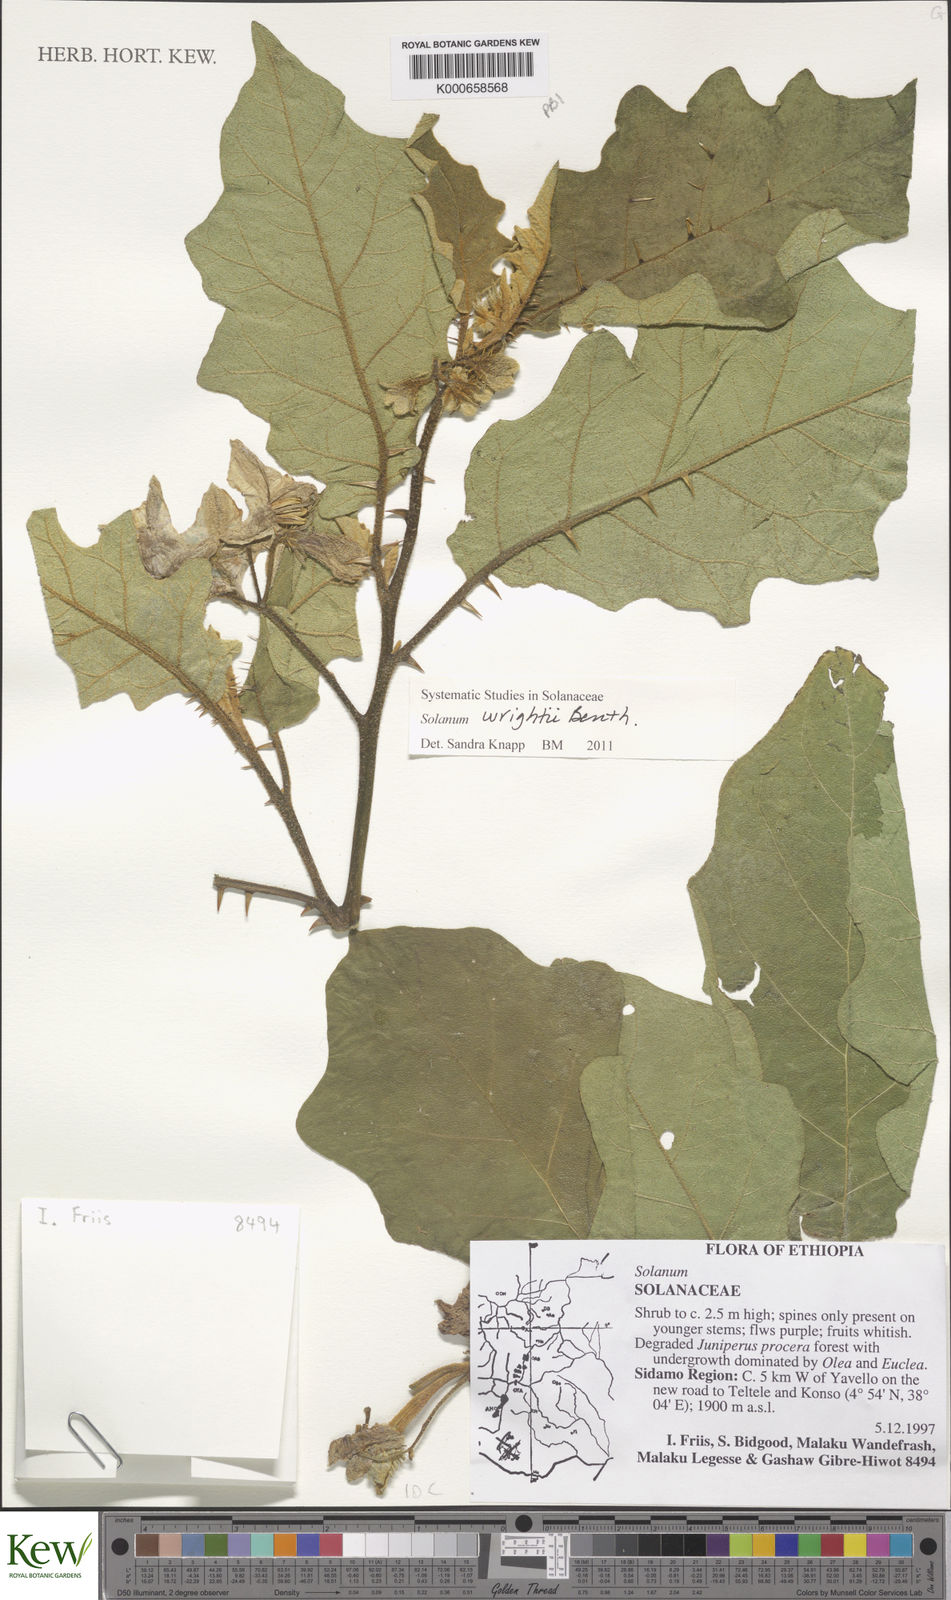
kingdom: Plantae
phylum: Tracheophyta
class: Magnoliopsida
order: Solanales
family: Solanaceae
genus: Solanum
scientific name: Solanum wrightii
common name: Brazilian potato-tree
